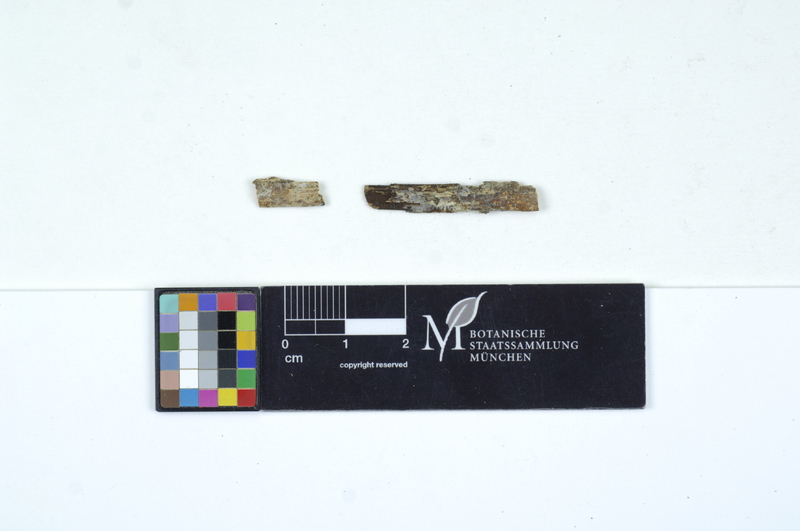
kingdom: Fungi
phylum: Basidiomycota
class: Agaricomycetes
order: Cantharellales
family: Ceratobasidiaceae
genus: Ceratobasidium
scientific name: Ceratobasidium cornigerum
